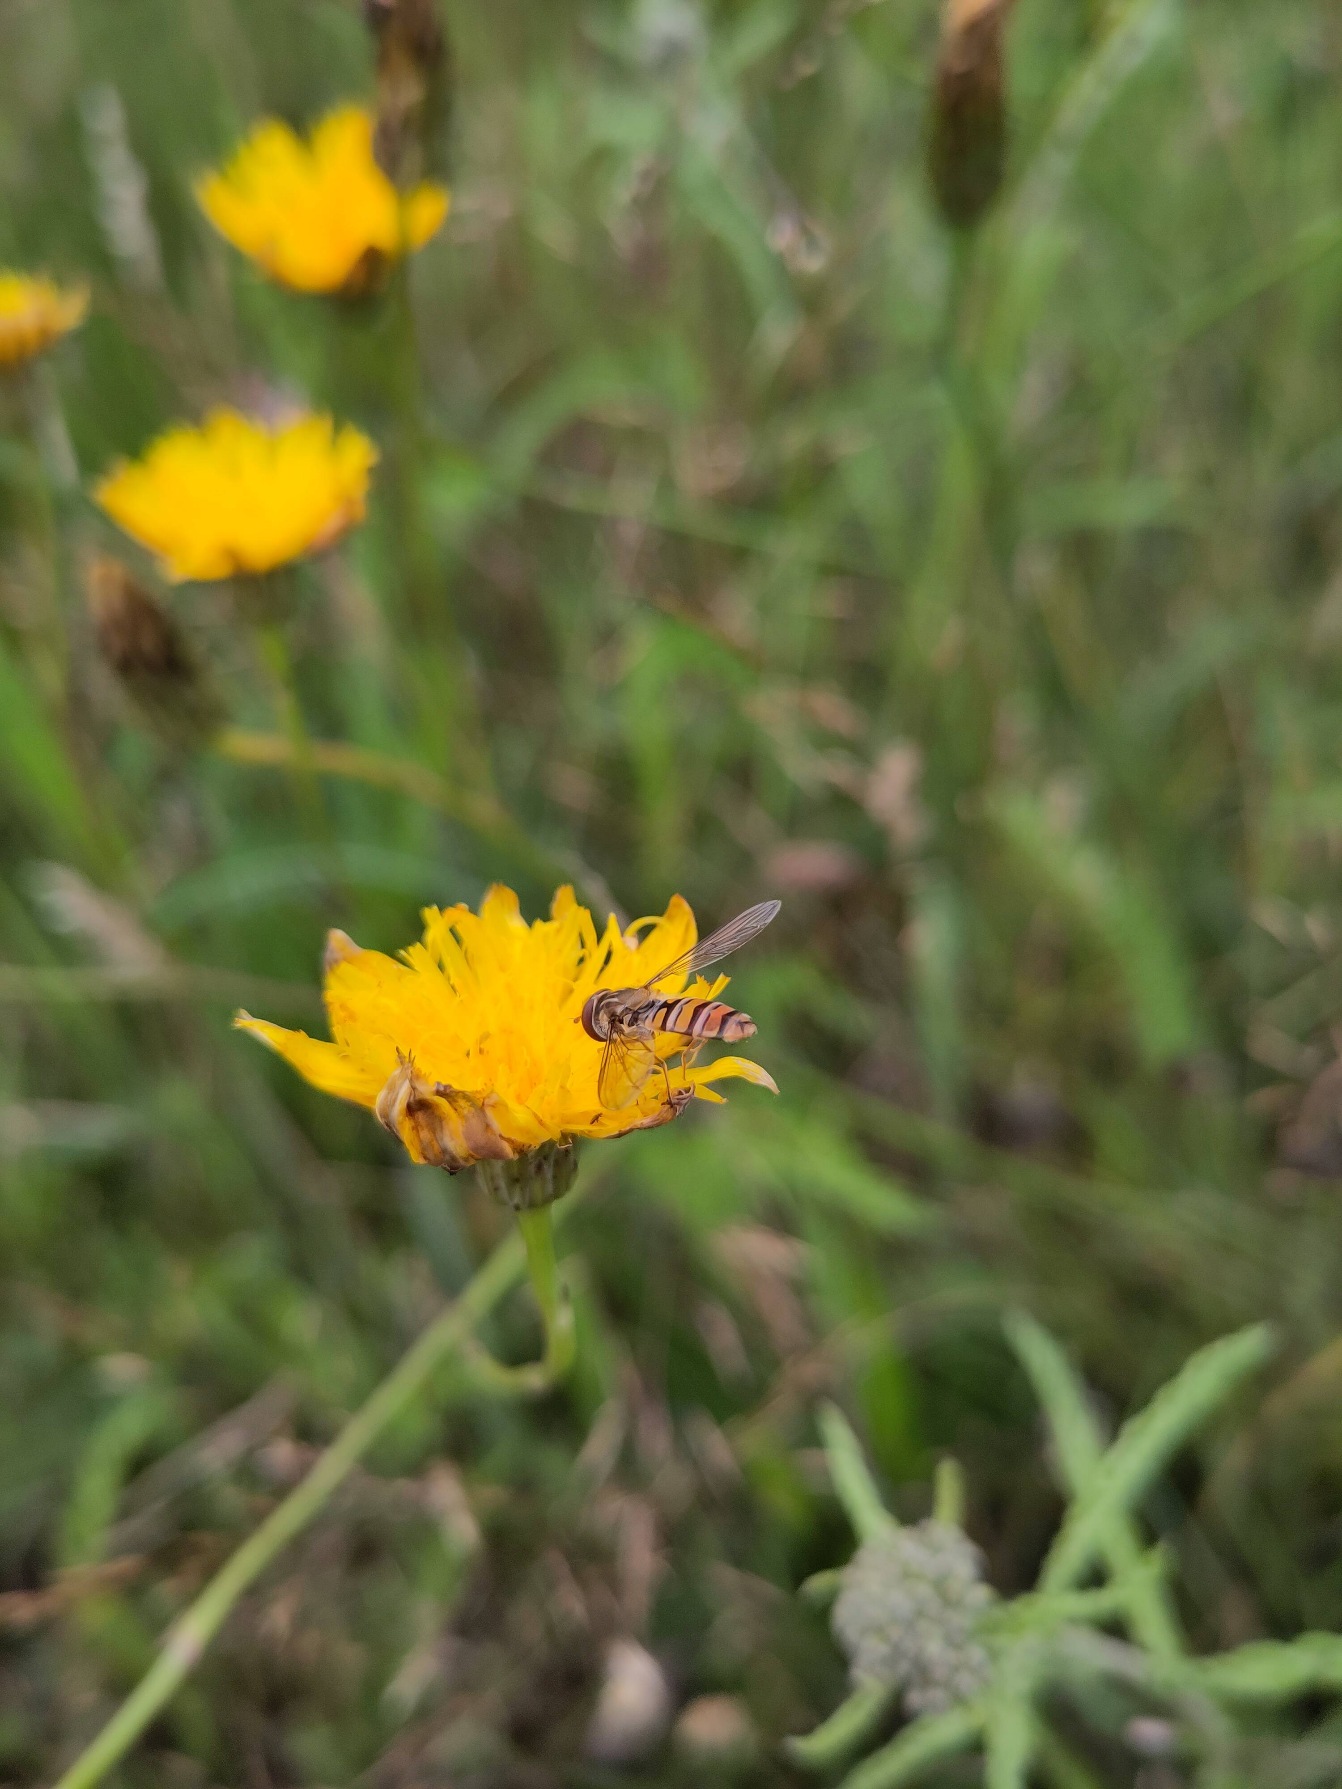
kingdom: Animalia
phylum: Arthropoda
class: Insecta
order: Diptera
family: Syrphidae
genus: Episyrphus
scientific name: Episyrphus balteatus
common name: Dobbeltbåndet svirreflue
